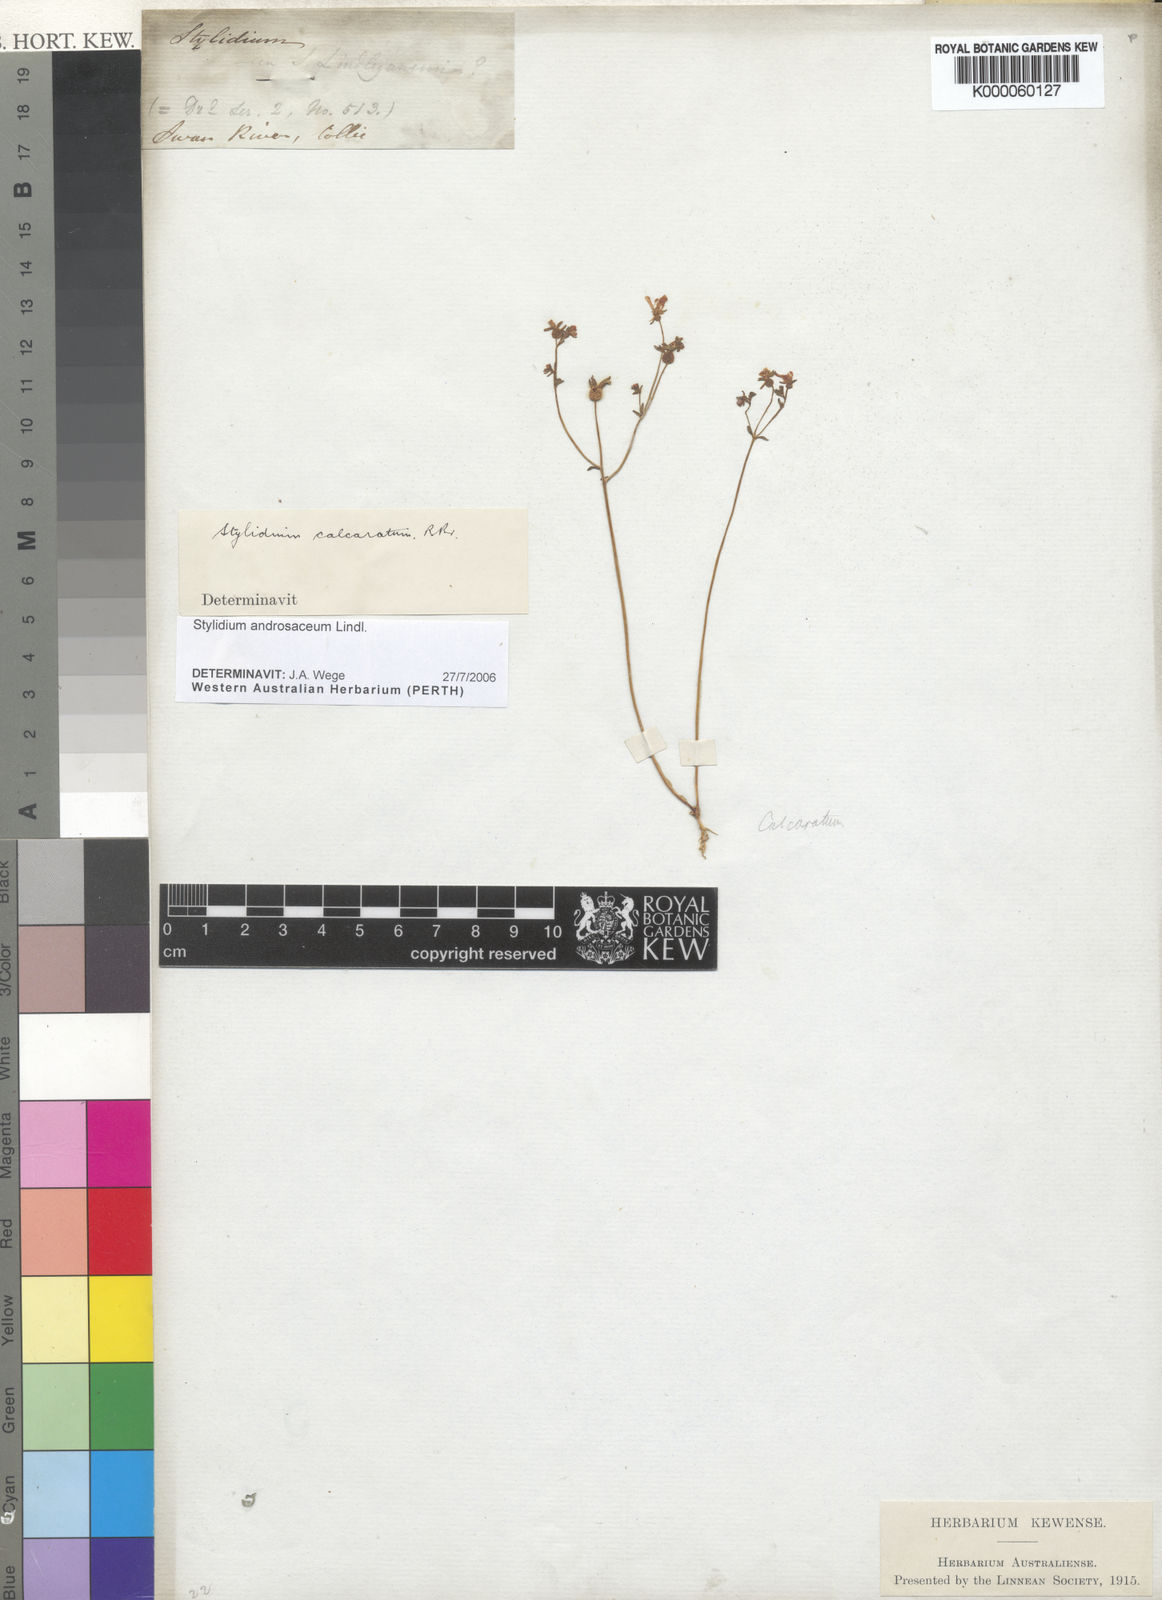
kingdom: Plantae
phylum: Tracheophyta
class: Magnoliopsida
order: Asterales
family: Stylidiaceae
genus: Stylidium
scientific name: Stylidium androsaceum
